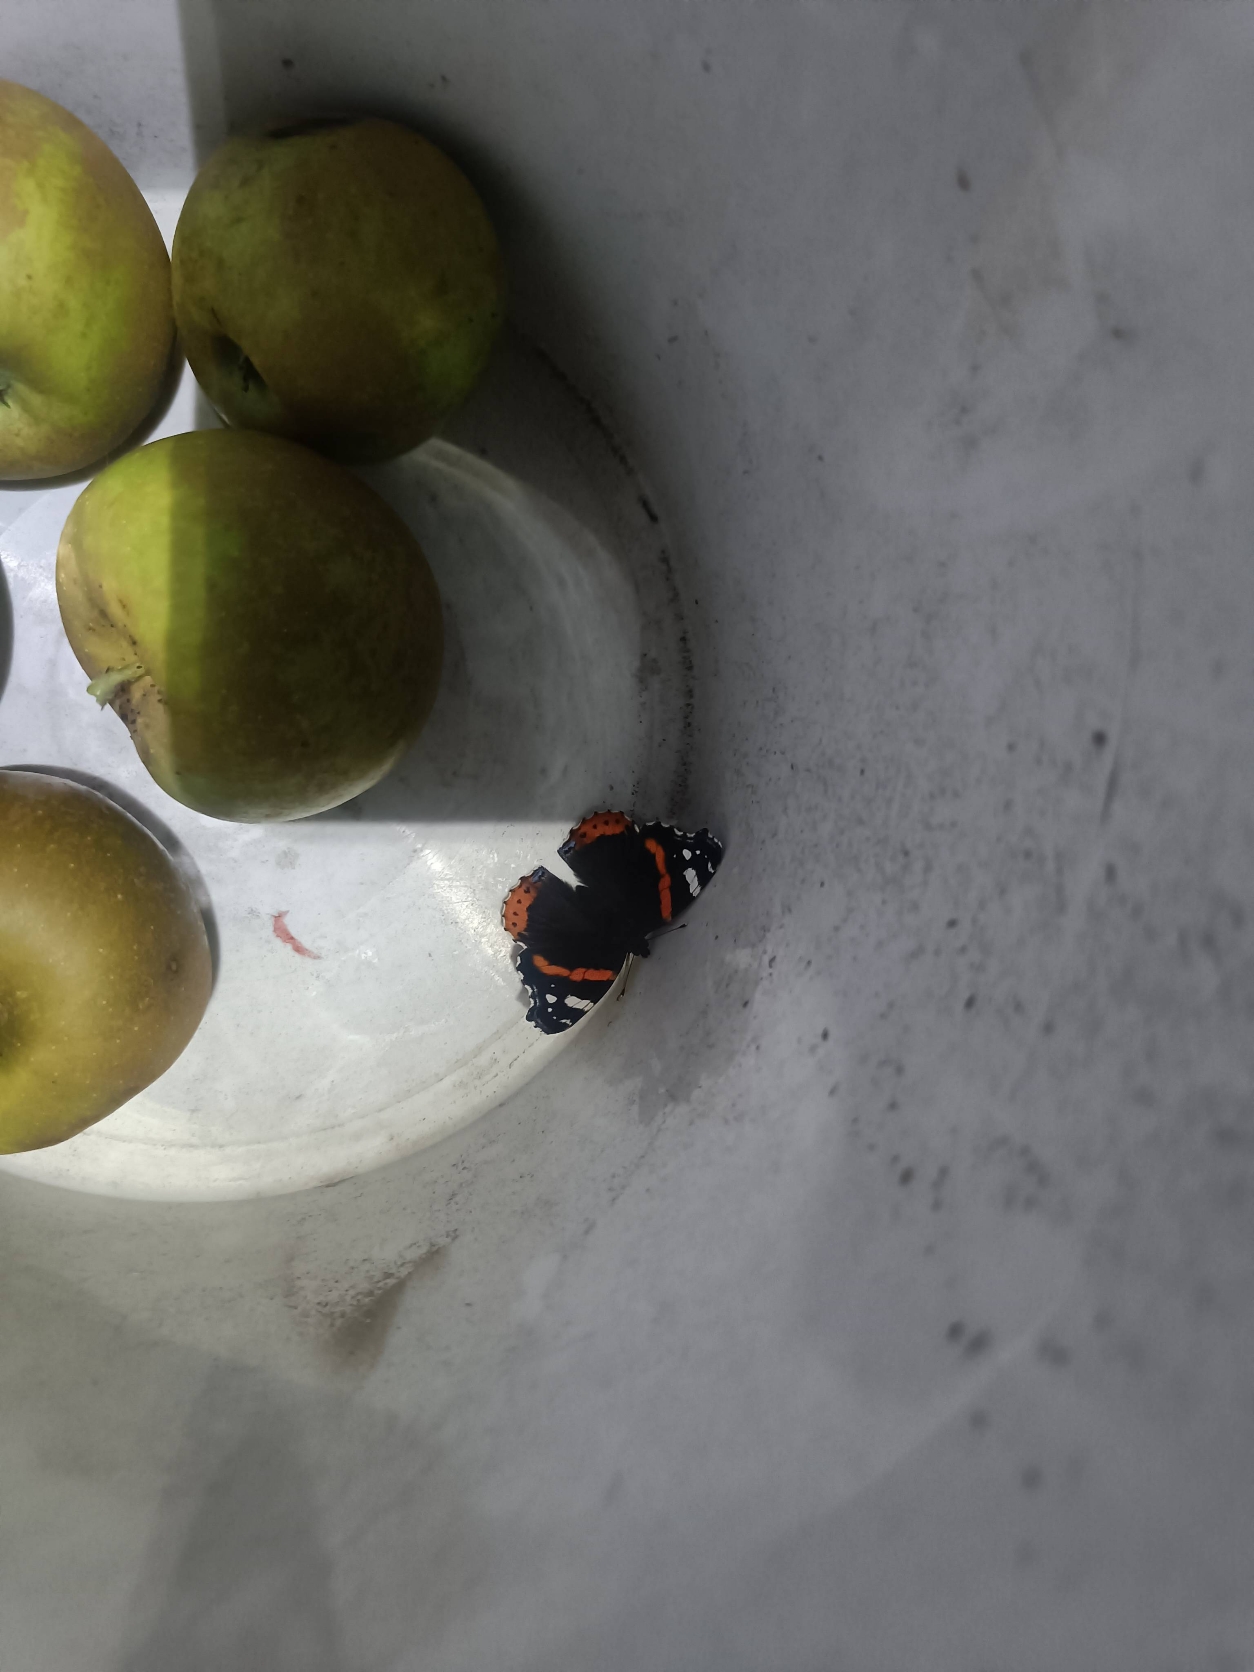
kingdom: Animalia
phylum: Arthropoda
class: Insecta
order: Lepidoptera
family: Nymphalidae
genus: Vanessa
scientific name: Vanessa atalanta
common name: Admiral
